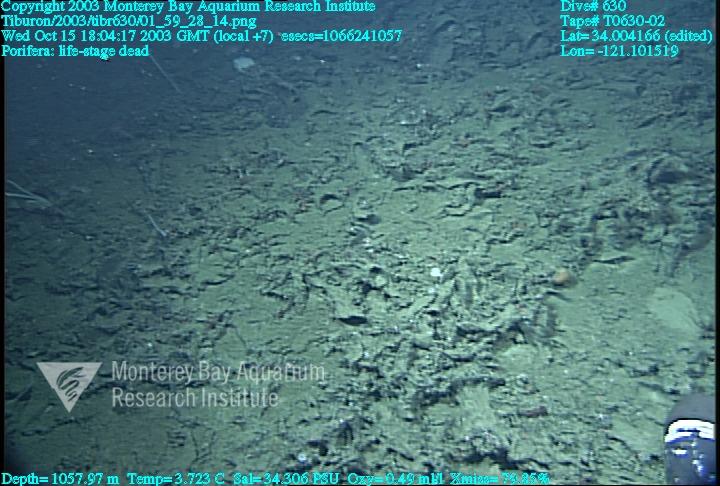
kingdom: Animalia
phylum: Porifera
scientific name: Porifera
